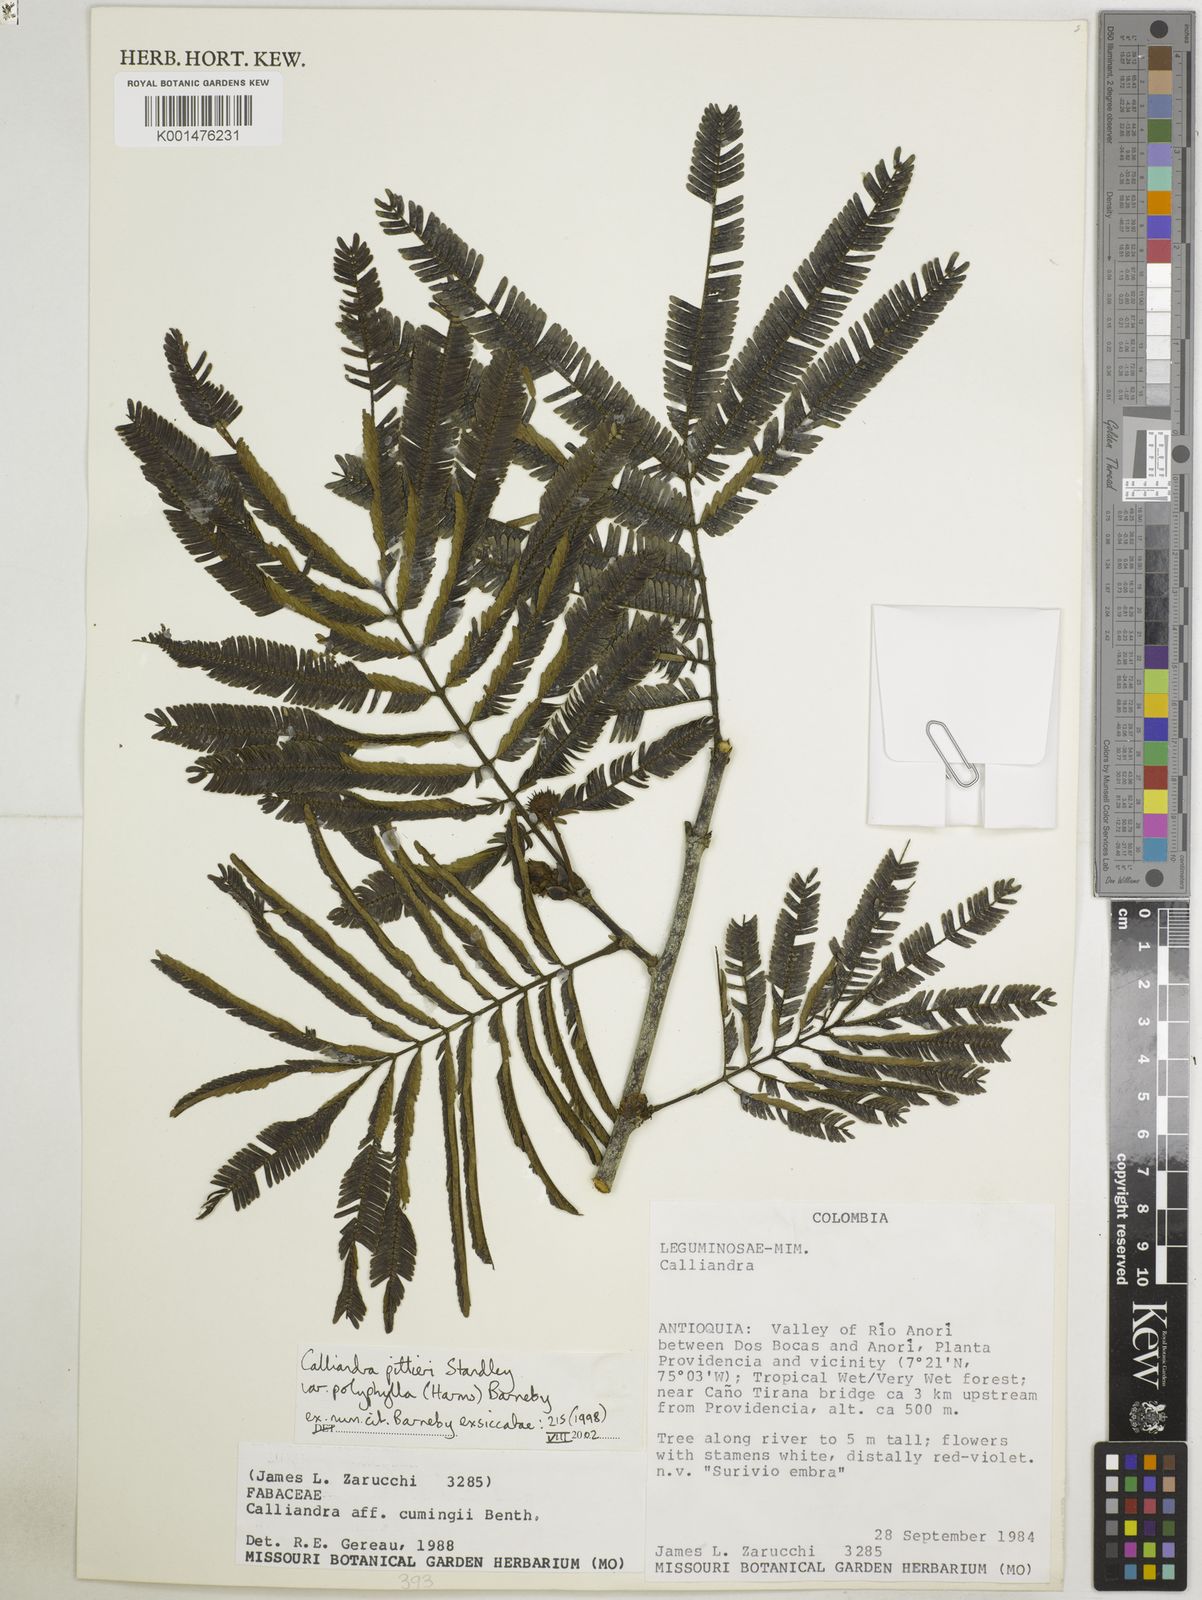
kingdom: Plantae
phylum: Tracheophyta
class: Magnoliopsida
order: Fabales
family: Fabaceae
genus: Calliandra
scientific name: Calliandra pittieri
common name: Carbonero de avenidas
